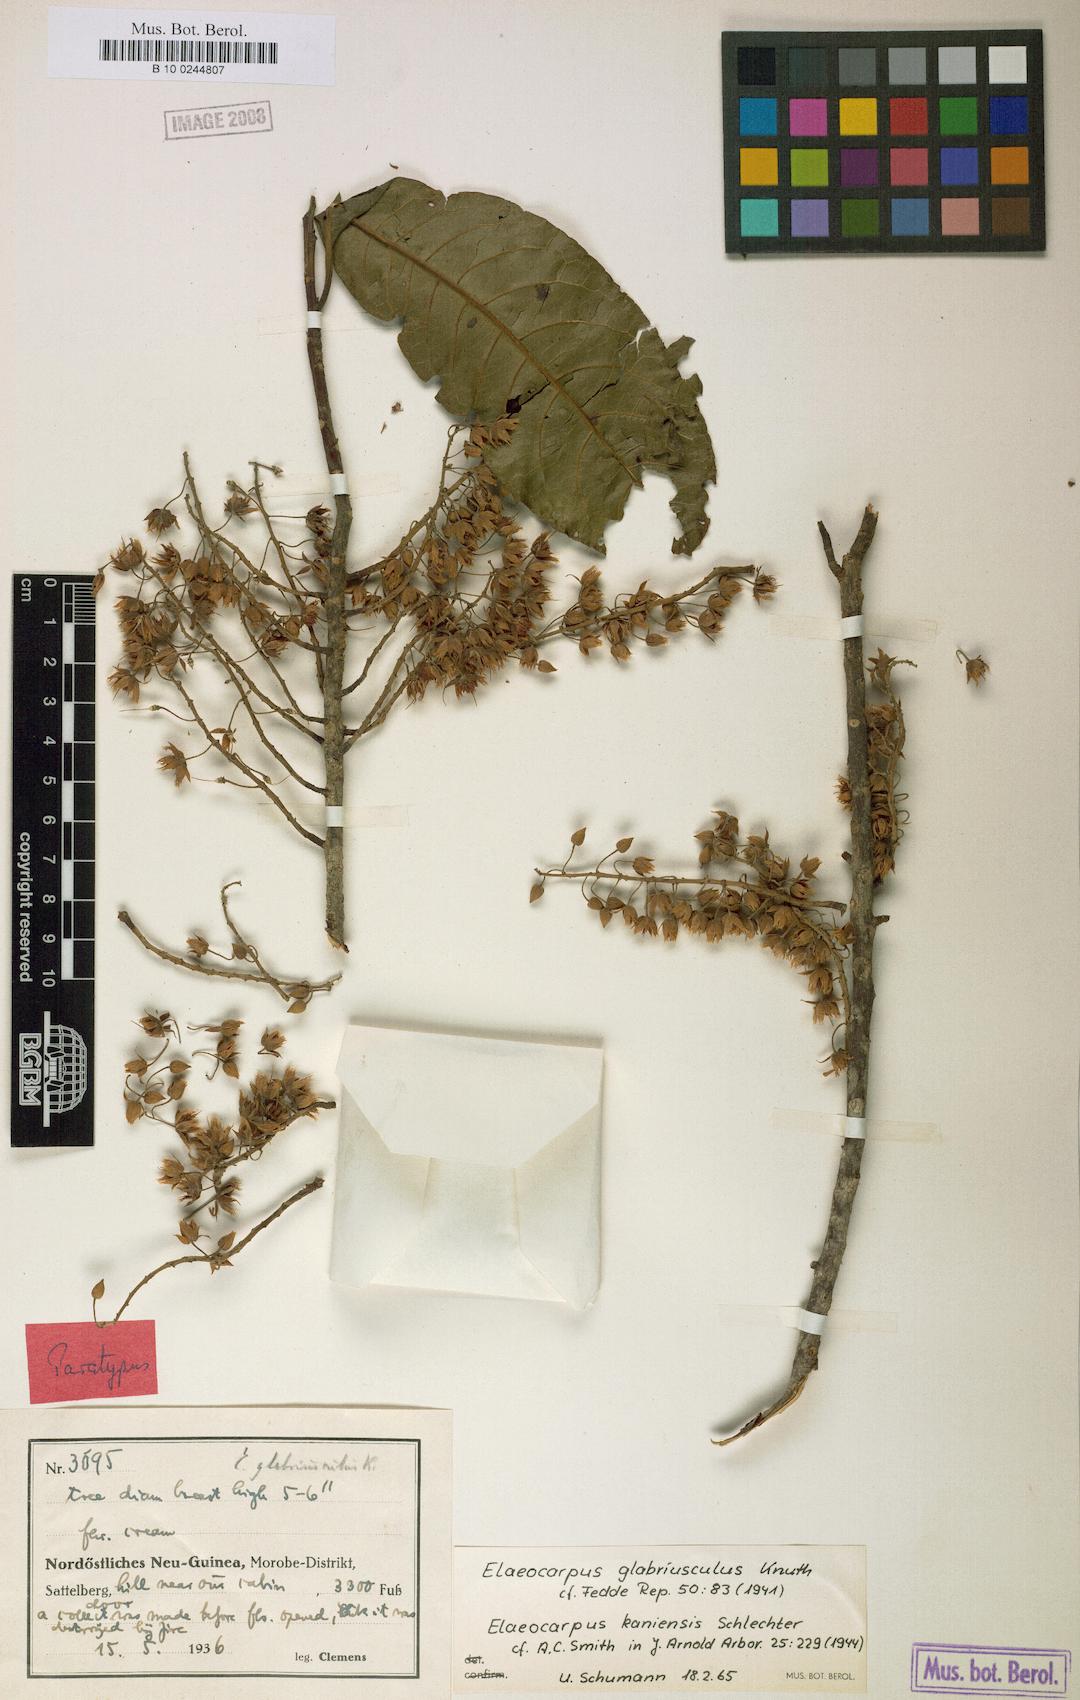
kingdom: Plantae
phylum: Tracheophyta
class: Magnoliopsida
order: Oxalidales
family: Elaeocarpaceae
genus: Elaeocarpus
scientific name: Elaeocarpus kaniensis
